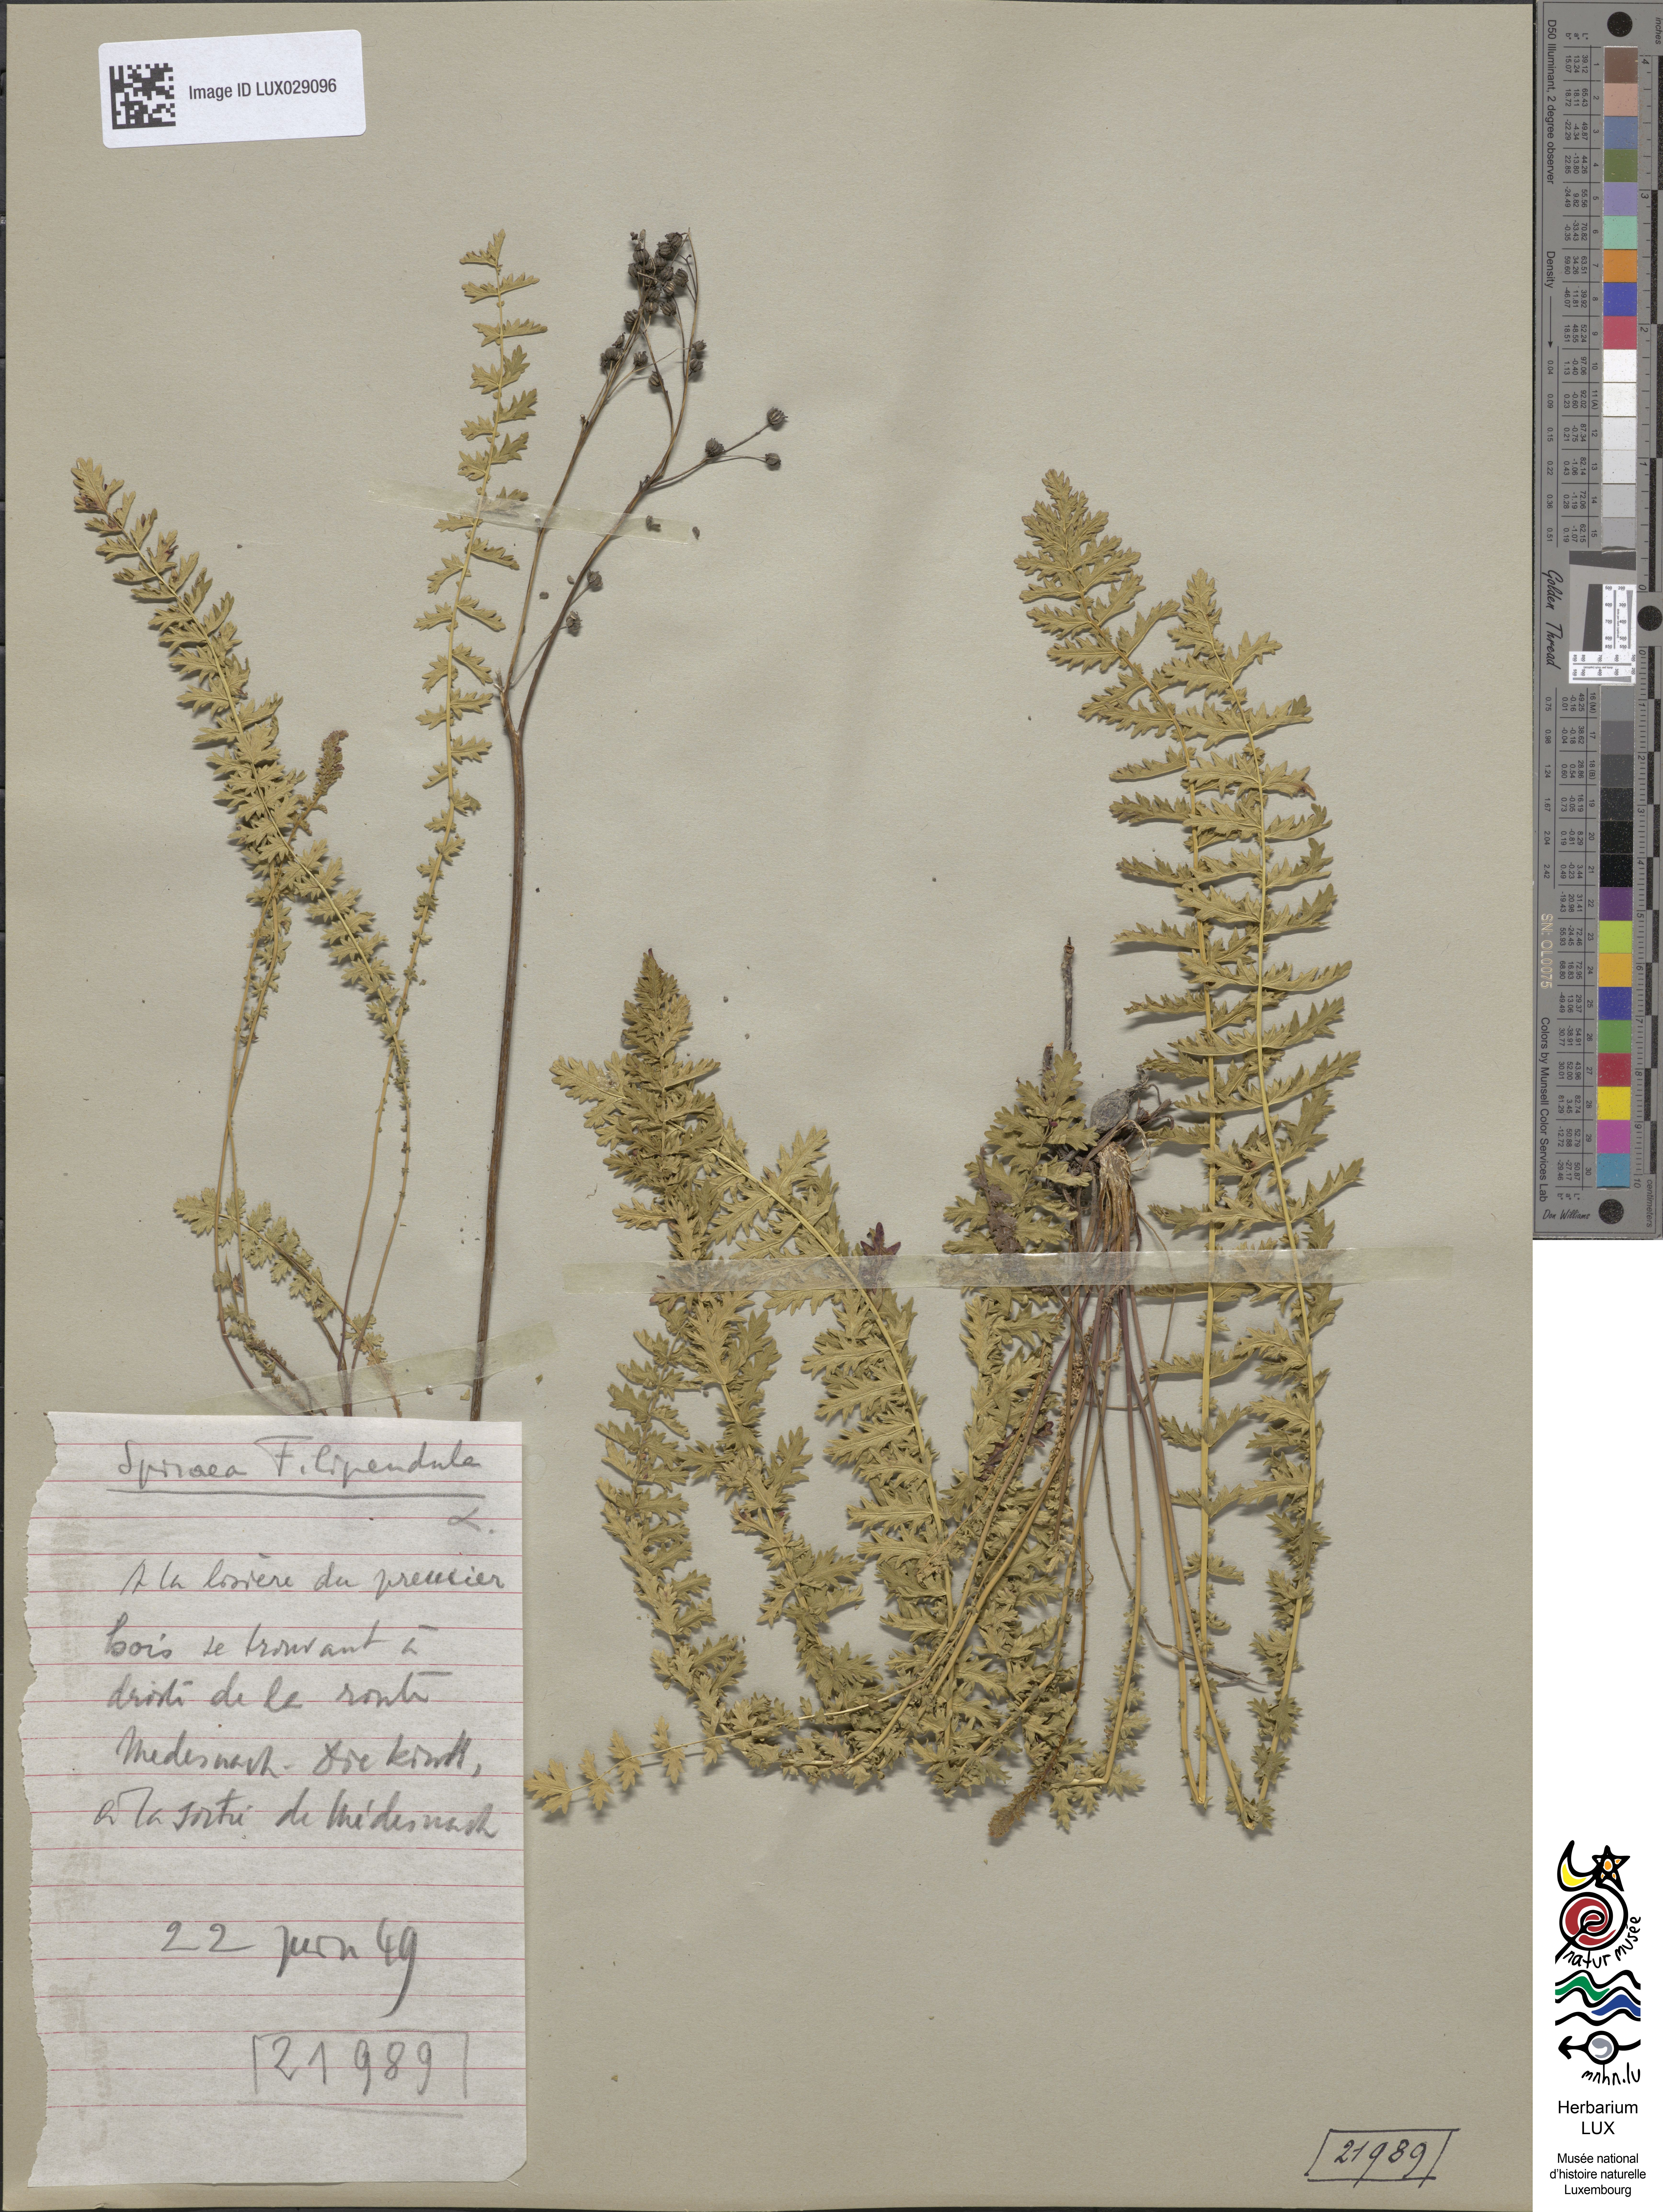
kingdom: Plantae
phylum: Tracheophyta
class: Magnoliopsida
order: Rosales
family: Rosaceae
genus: Filipendula
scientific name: Filipendula vulgaris
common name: Dropwort
